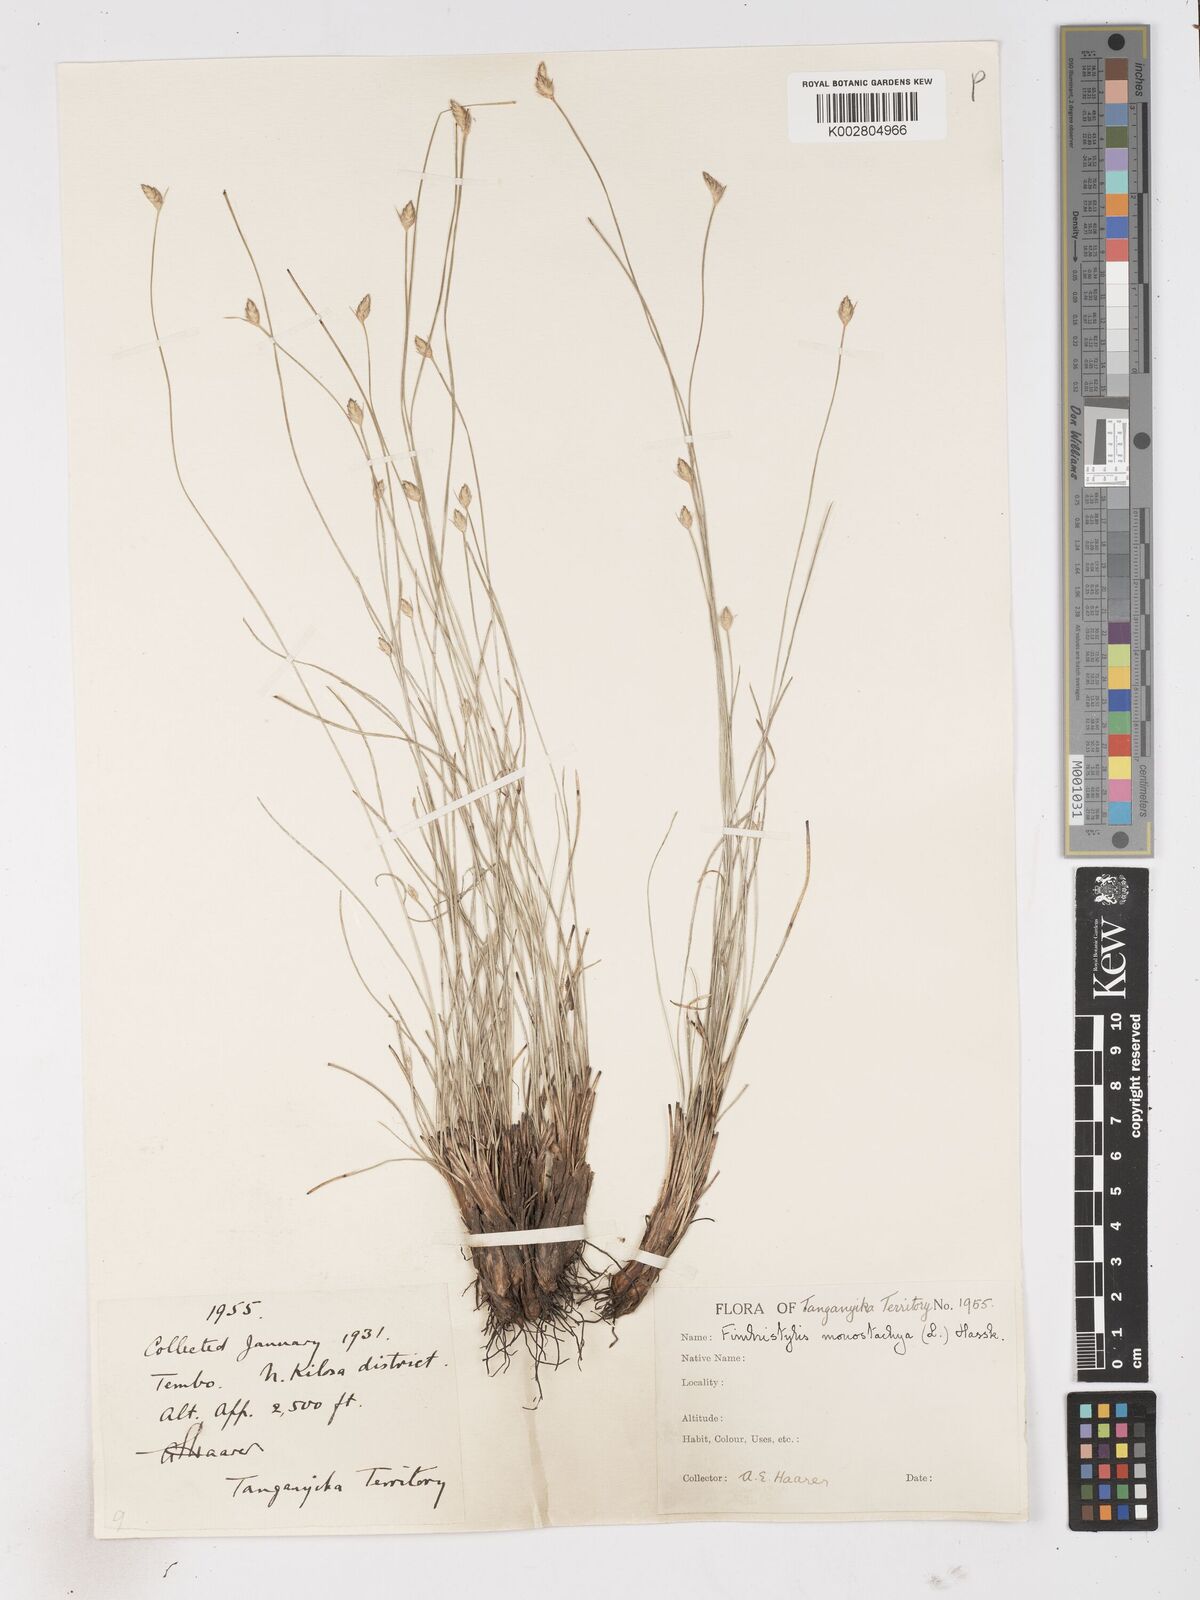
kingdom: Plantae
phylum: Tracheophyta
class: Liliopsida
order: Poales
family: Cyperaceae
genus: Abildgaardia
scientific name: Abildgaardia ovata
